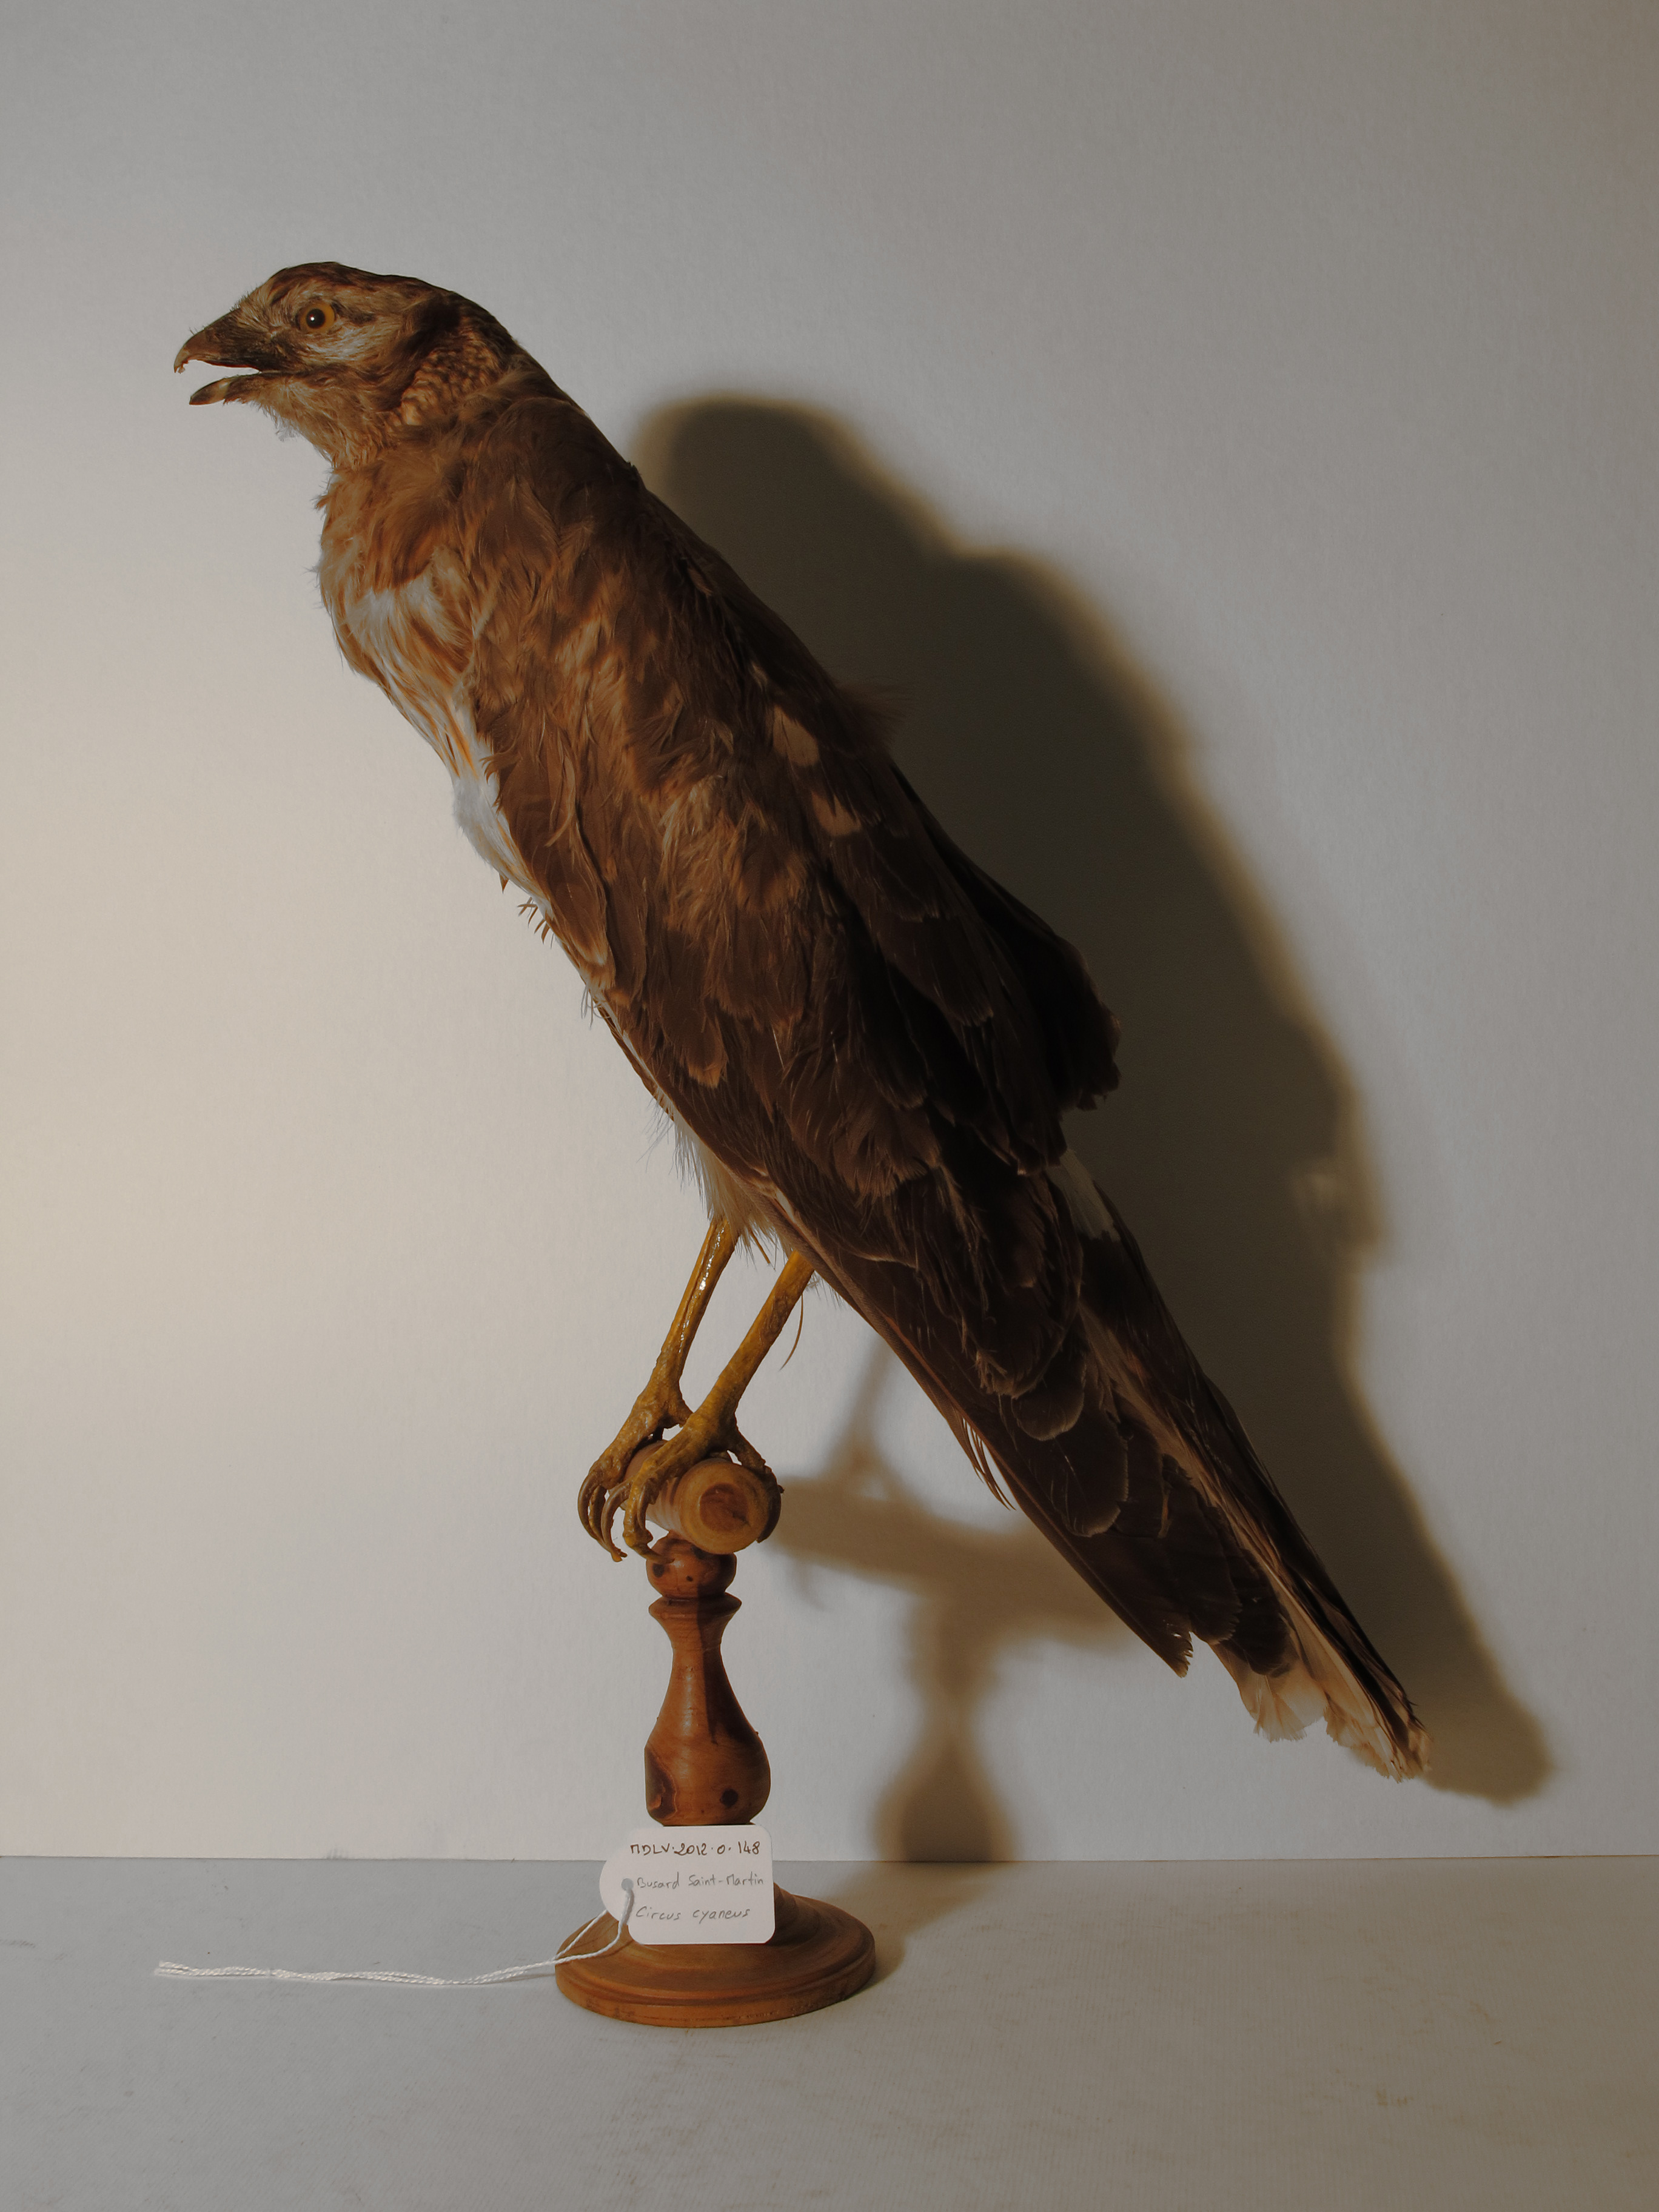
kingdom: Animalia
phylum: Chordata
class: Aves
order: Accipitriformes
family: Accipitridae
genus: Circus
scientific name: Circus cyaneus
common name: Hen Harrier
